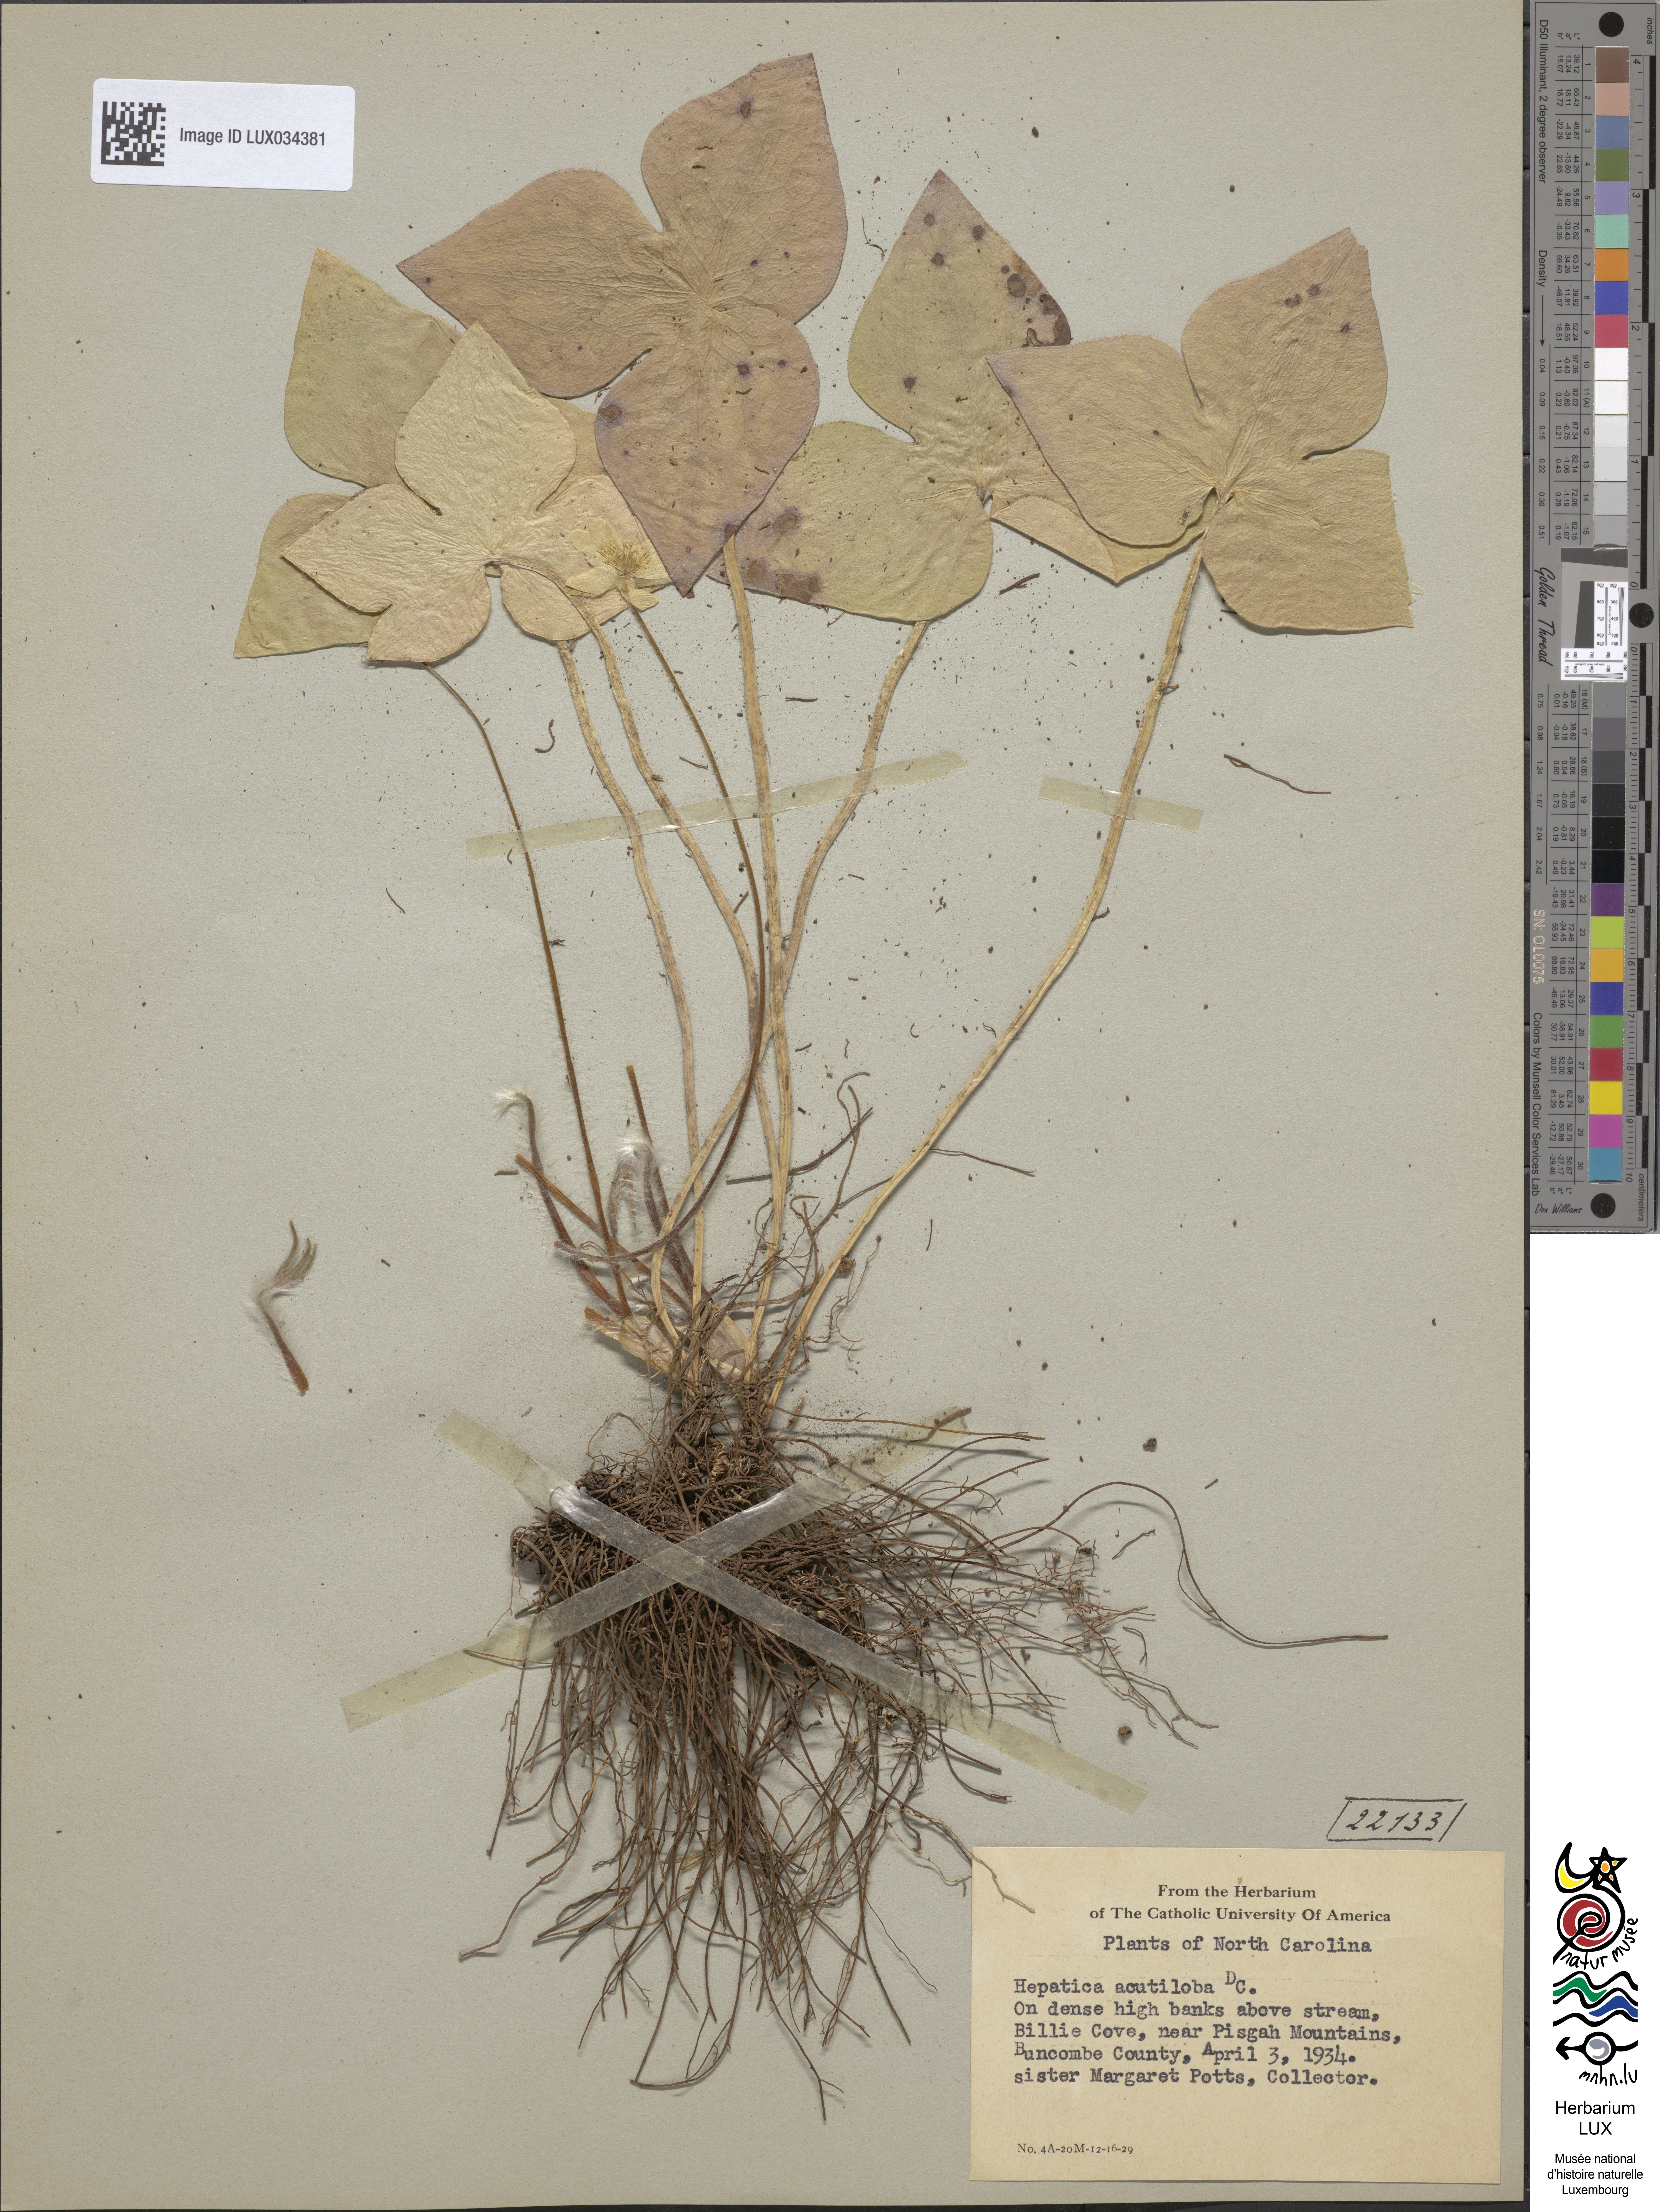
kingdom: Plantae
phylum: Tracheophyta
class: Magnoliopsida
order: Ranunculales
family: Ranunculaceae
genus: Hepatica
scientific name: Hepatica acutiloba
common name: Sharp-lobed hepatica
